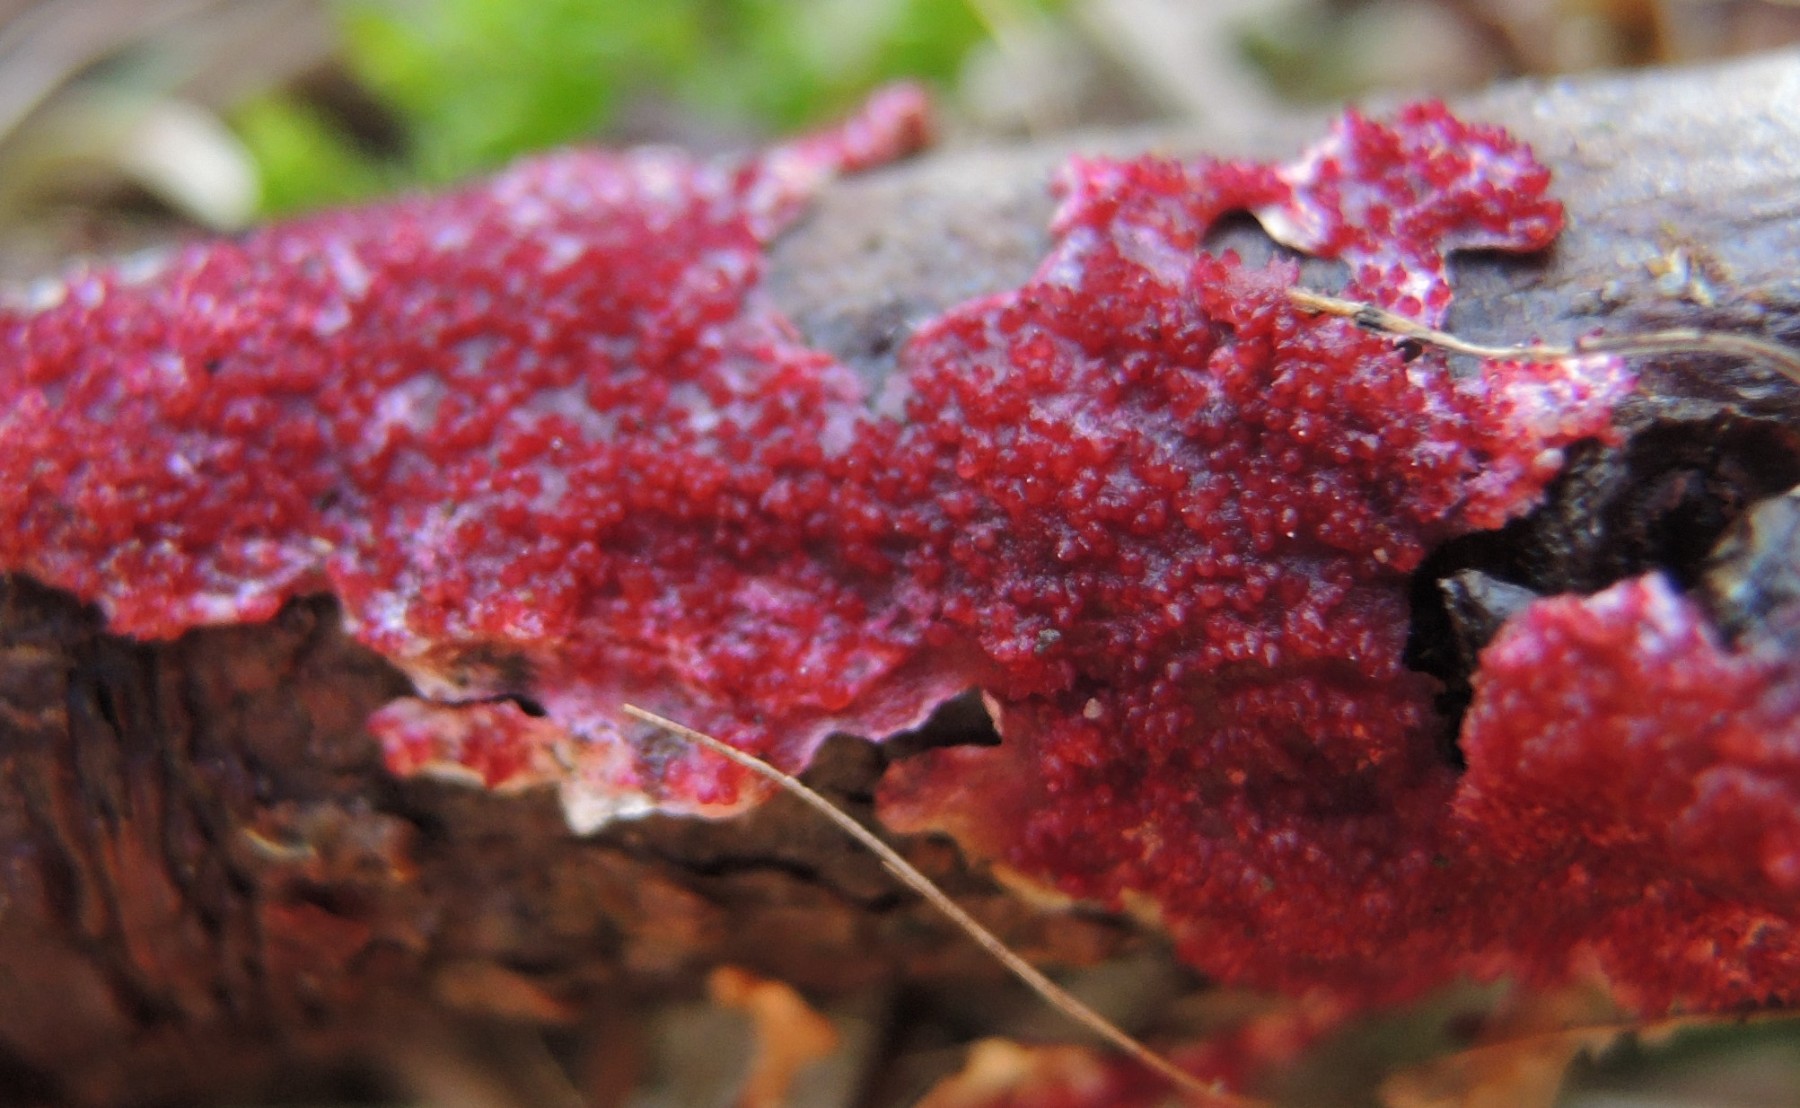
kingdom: Fungi
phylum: Ascomycota
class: Sordariomycetes
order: Hypocreales
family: Hypocreaceae
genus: Hypomyces
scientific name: Hypomyces rosellus
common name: rosa snylteskorpe
